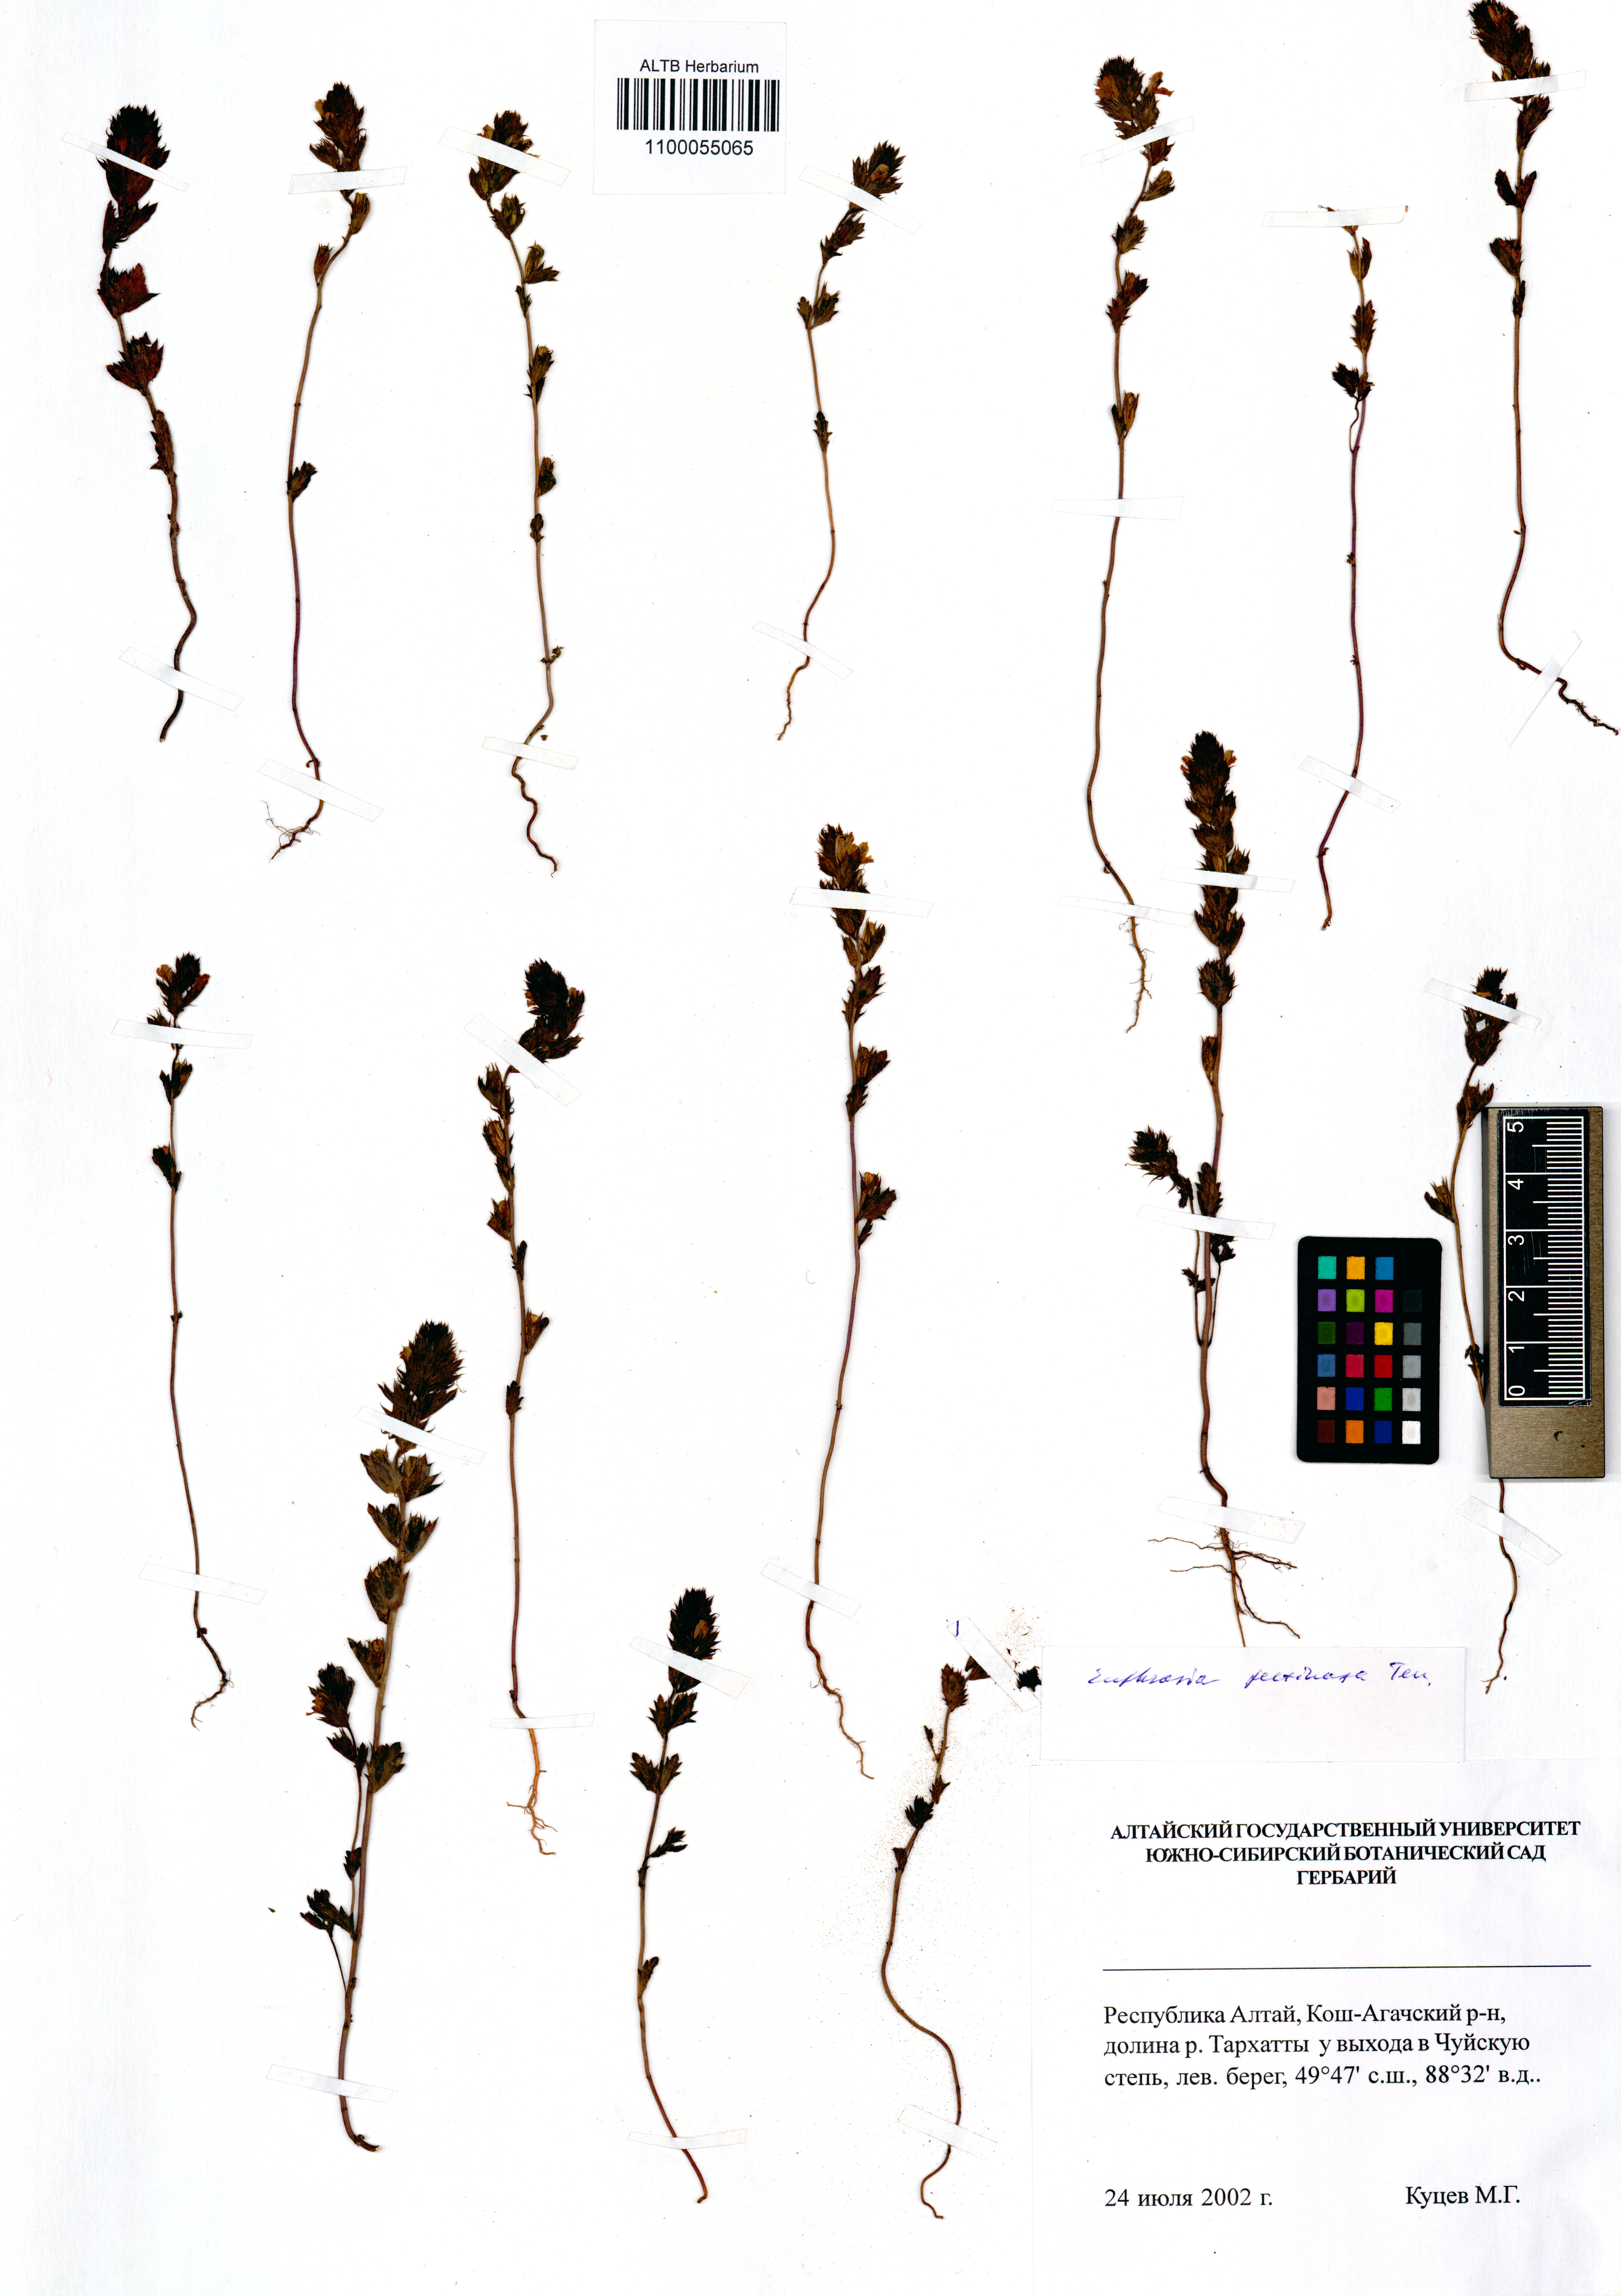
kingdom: Plantae
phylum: Tracheophyta
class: Magnoliopsida
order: Lamiales
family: Orobanchaceae
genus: Euphrasia
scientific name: Euphrasia pectinata
